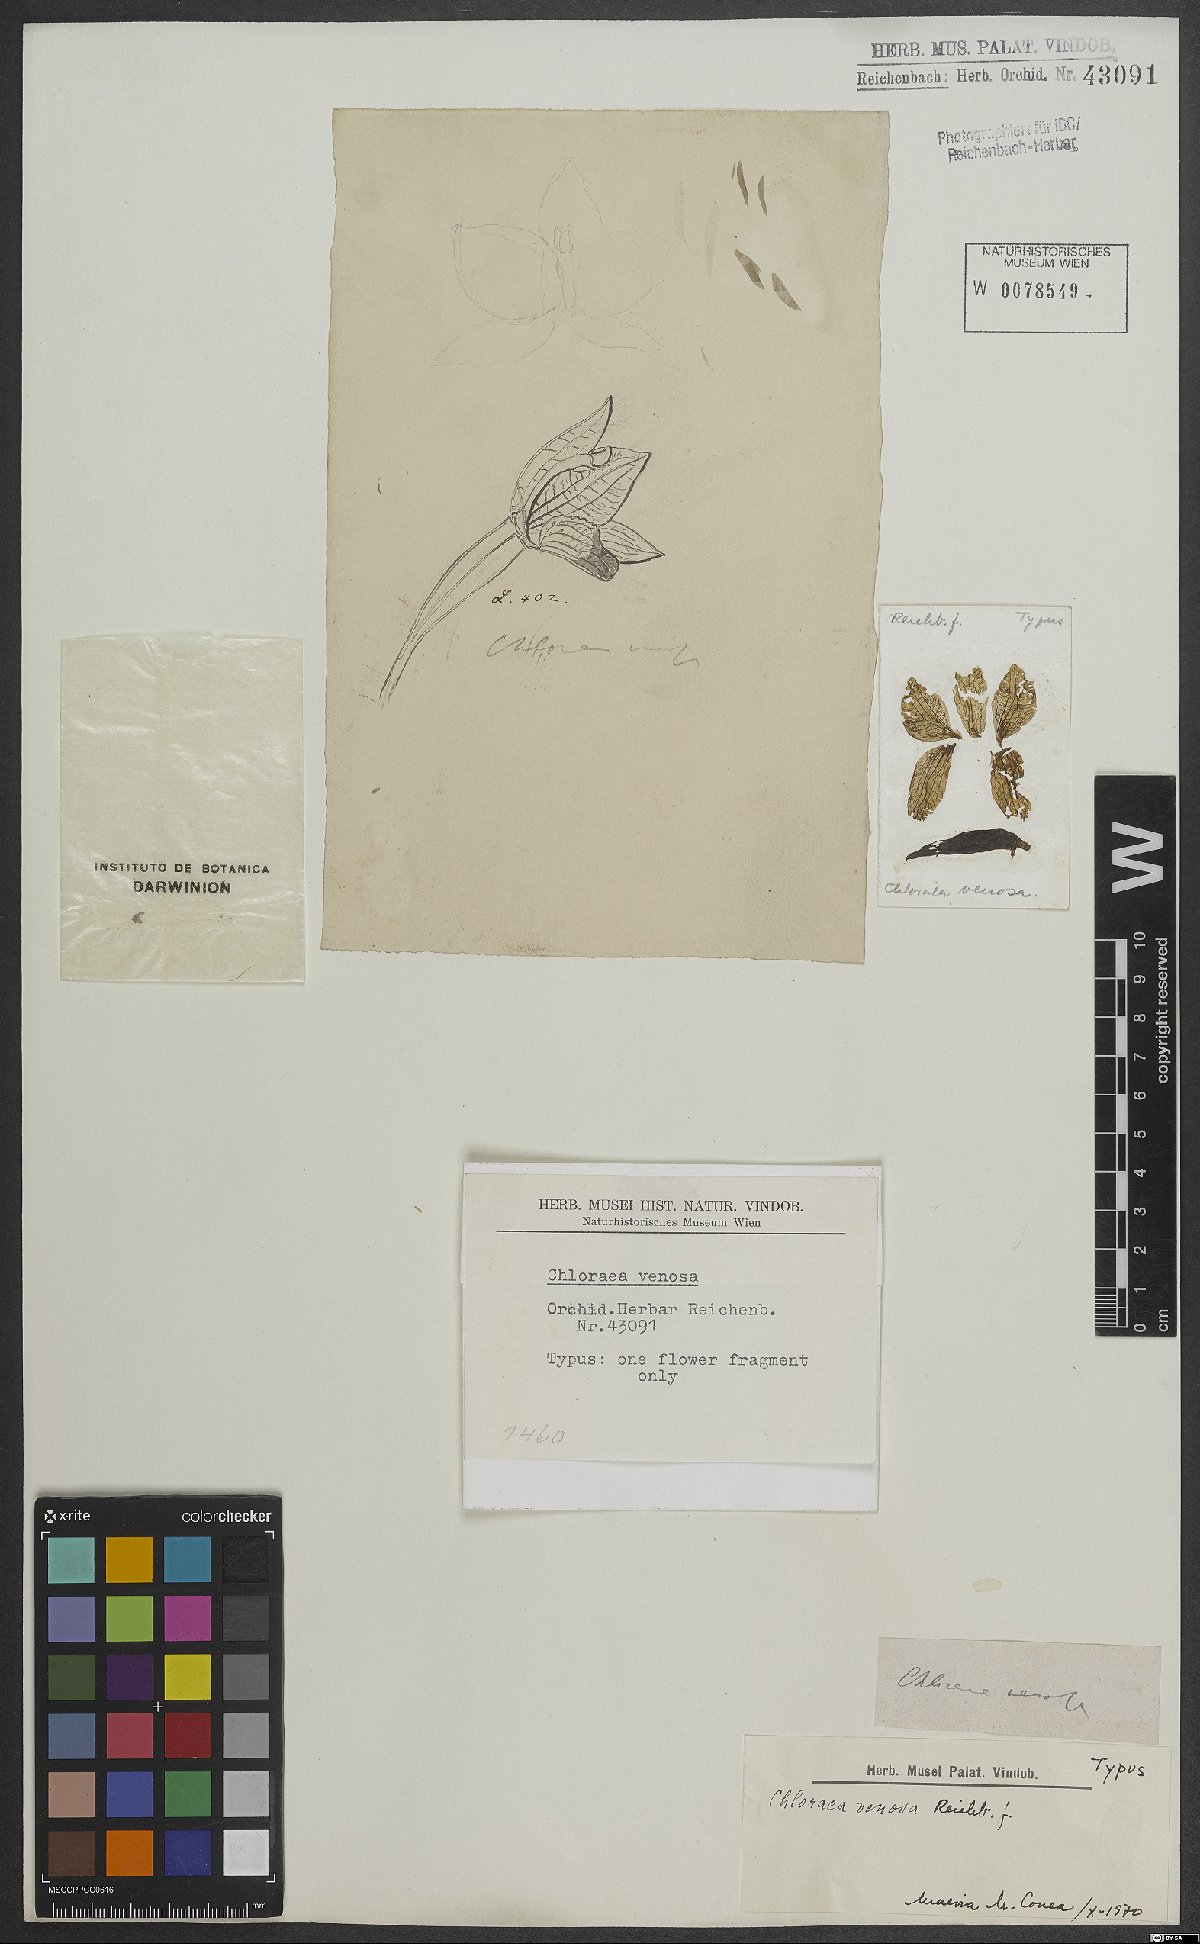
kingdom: Plantae
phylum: Tracheophyta
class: Liliopsida
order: Asparagales
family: Orchidaceae
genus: Chloraea
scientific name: Chloraea venosa
